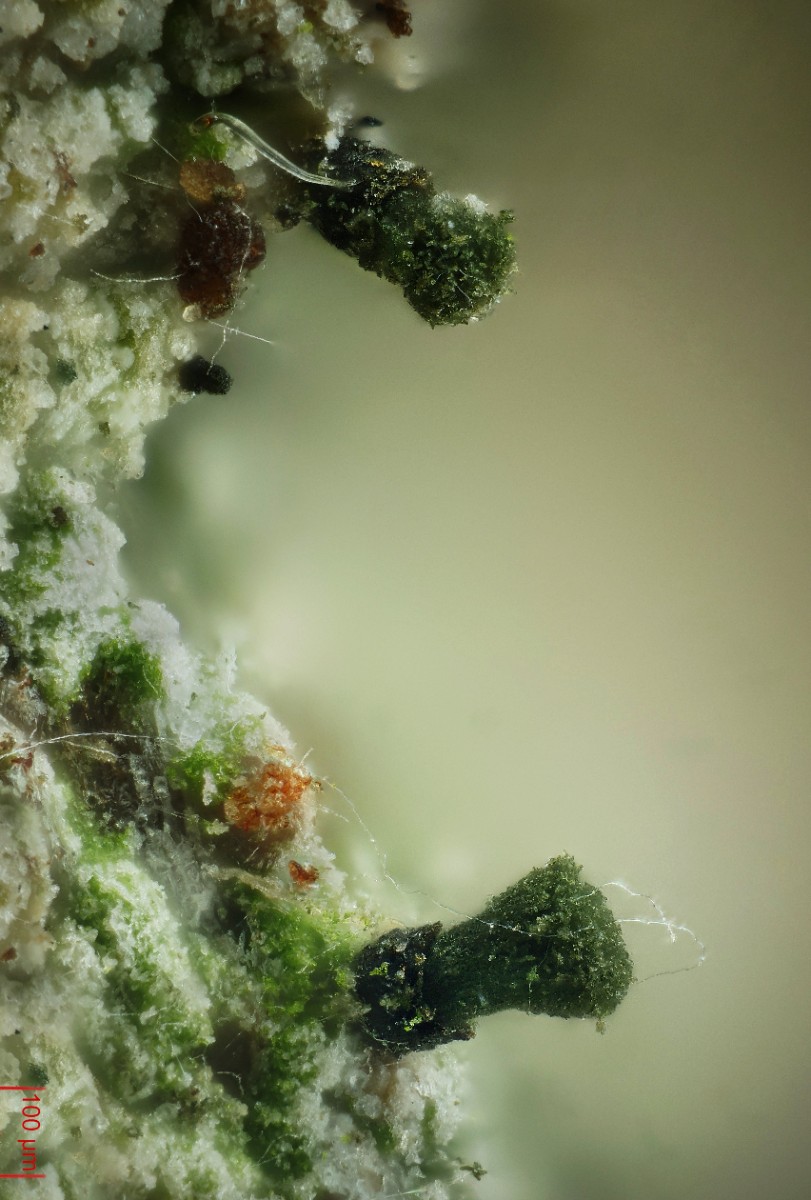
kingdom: Fungi
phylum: Ascomycota
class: Lecanoromycetes
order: Pertusariales
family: Microcaliciaceae
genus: Microcalicium
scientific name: Microcalicium disseminatum
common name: nålelavs-parasitnål
